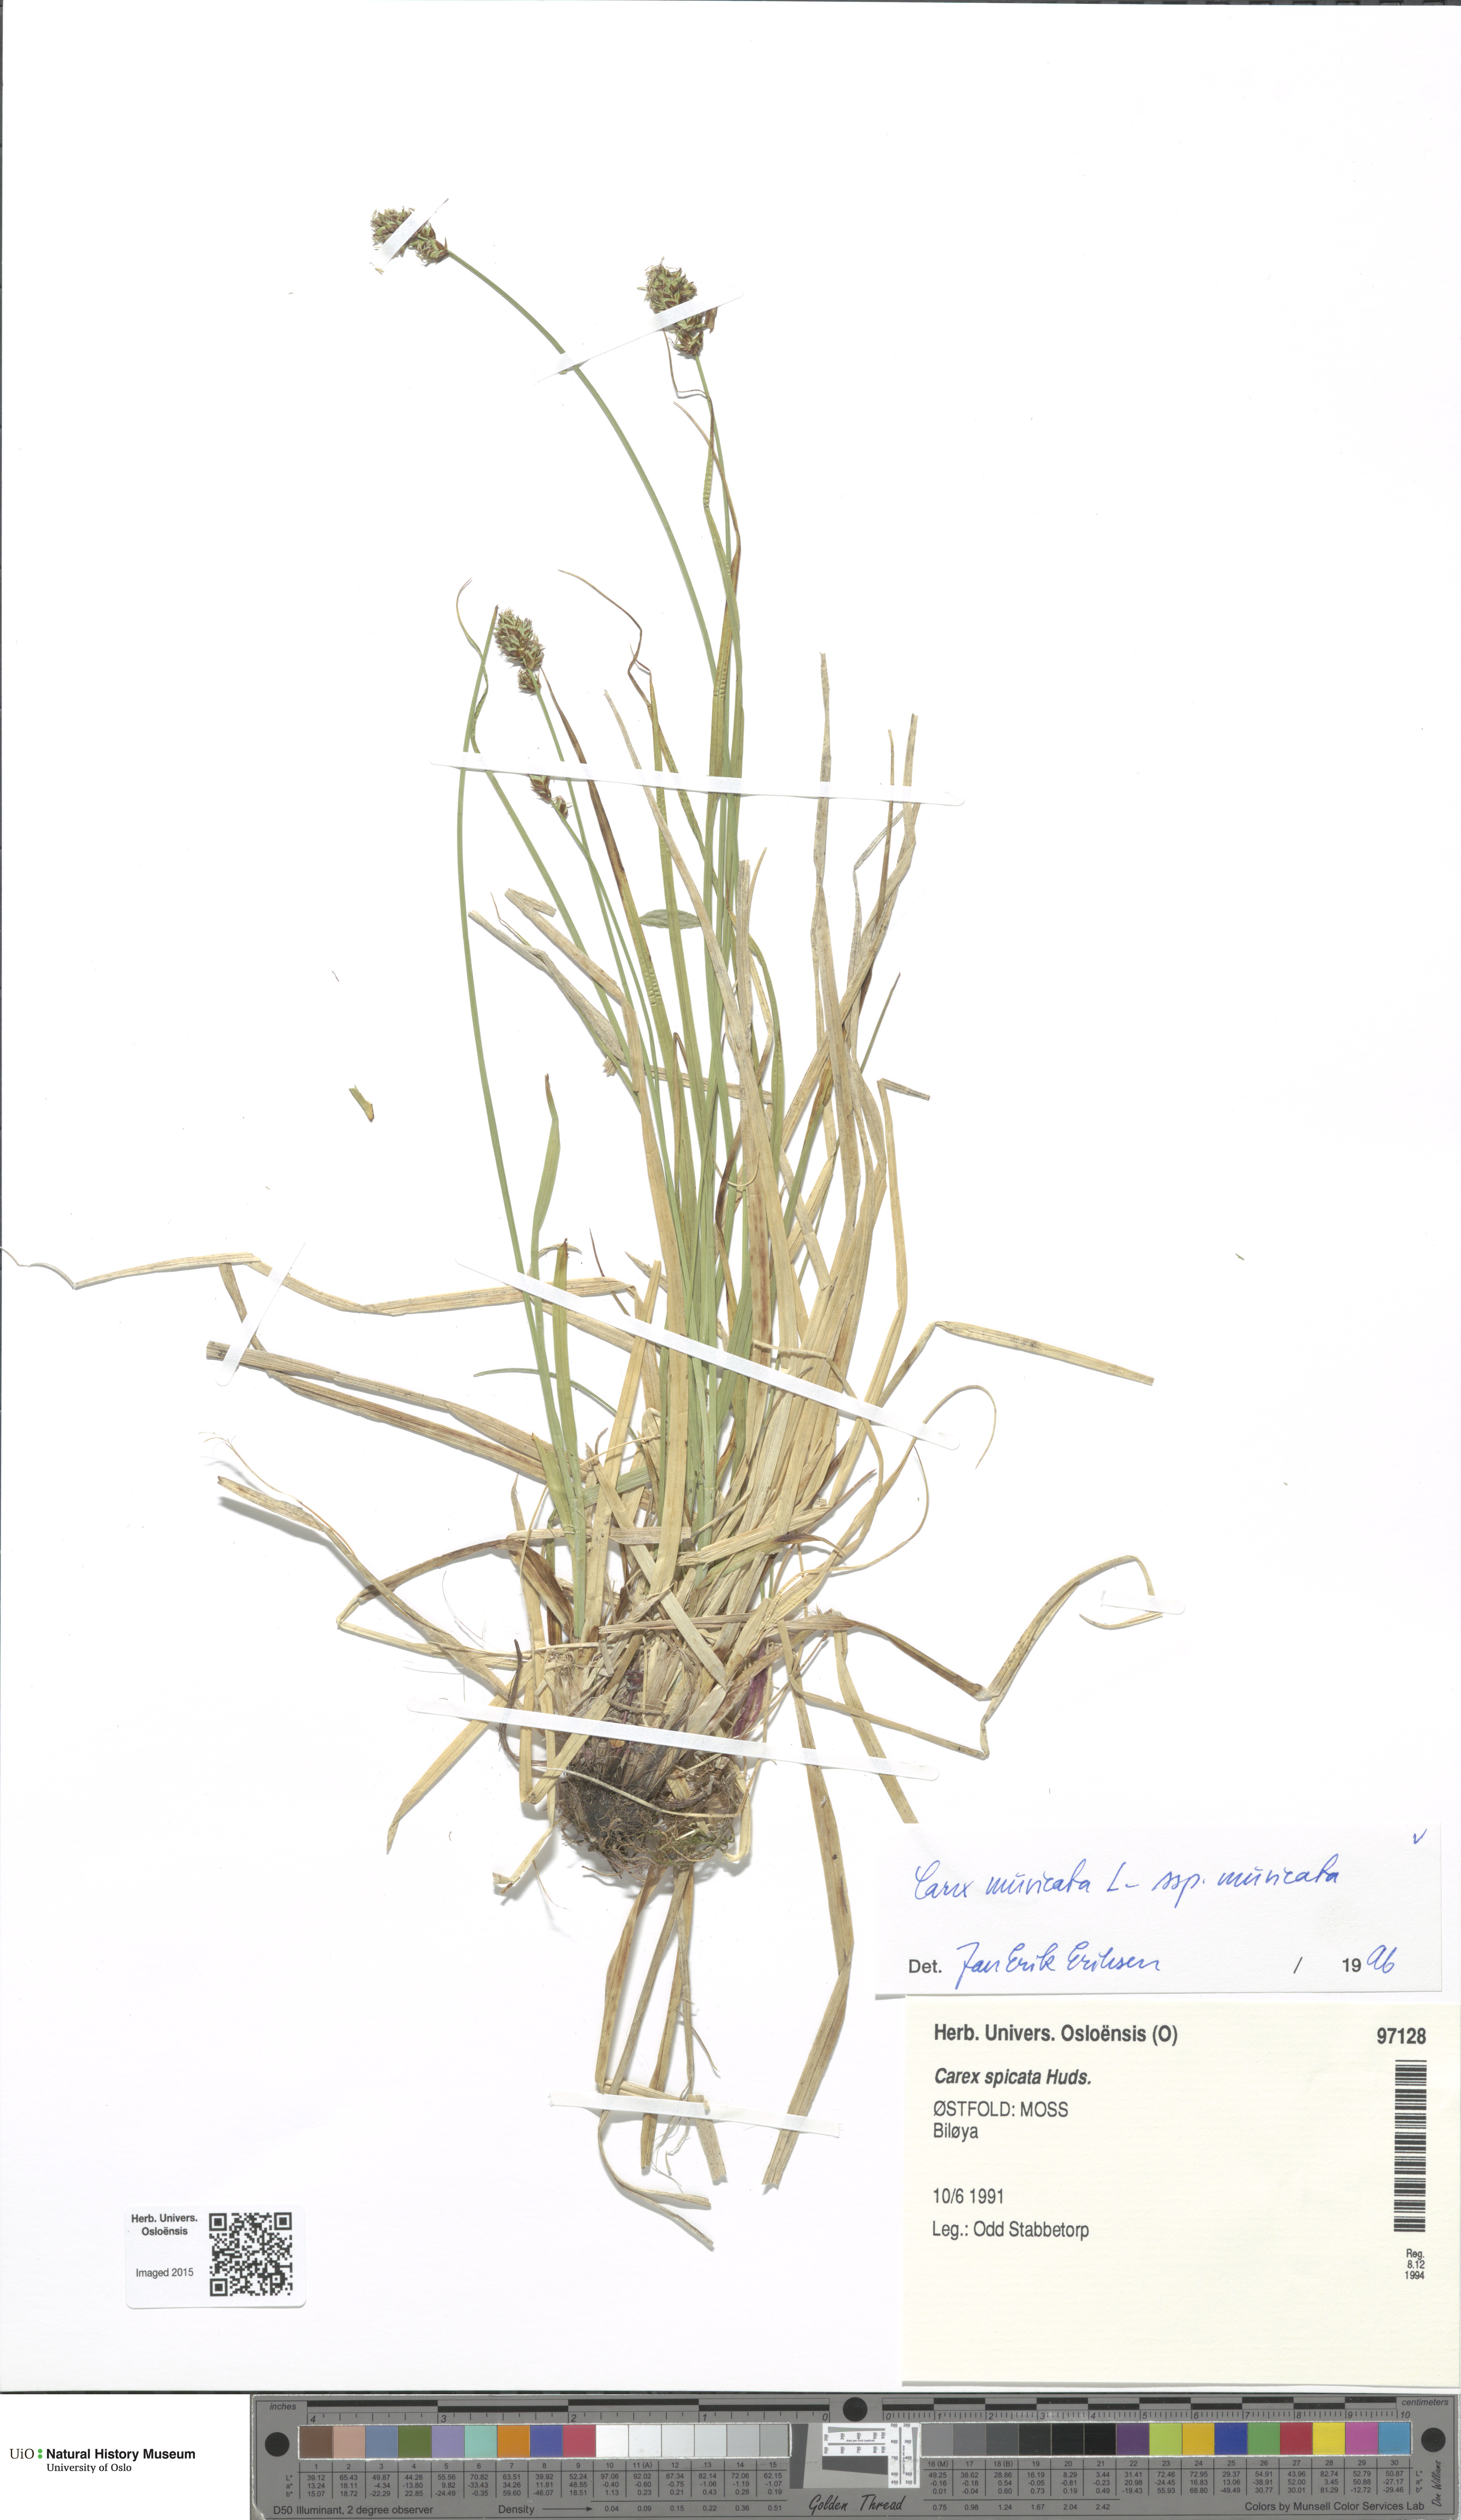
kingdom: Plantae
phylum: Tracheophyta
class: Liliopsida
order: Poales
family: Cyperaceae
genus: Carex
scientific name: Carex muricata
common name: Rough sedge
